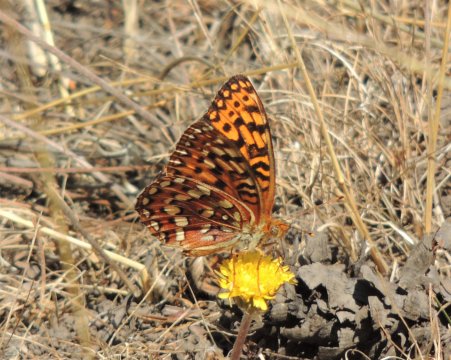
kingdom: Animalia
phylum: Arthropoda
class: Insecta
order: Lepidoptera
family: Nymphalidae
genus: Speyeria
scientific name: Speyeria hydaspe
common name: Hydaspe Fritillary
